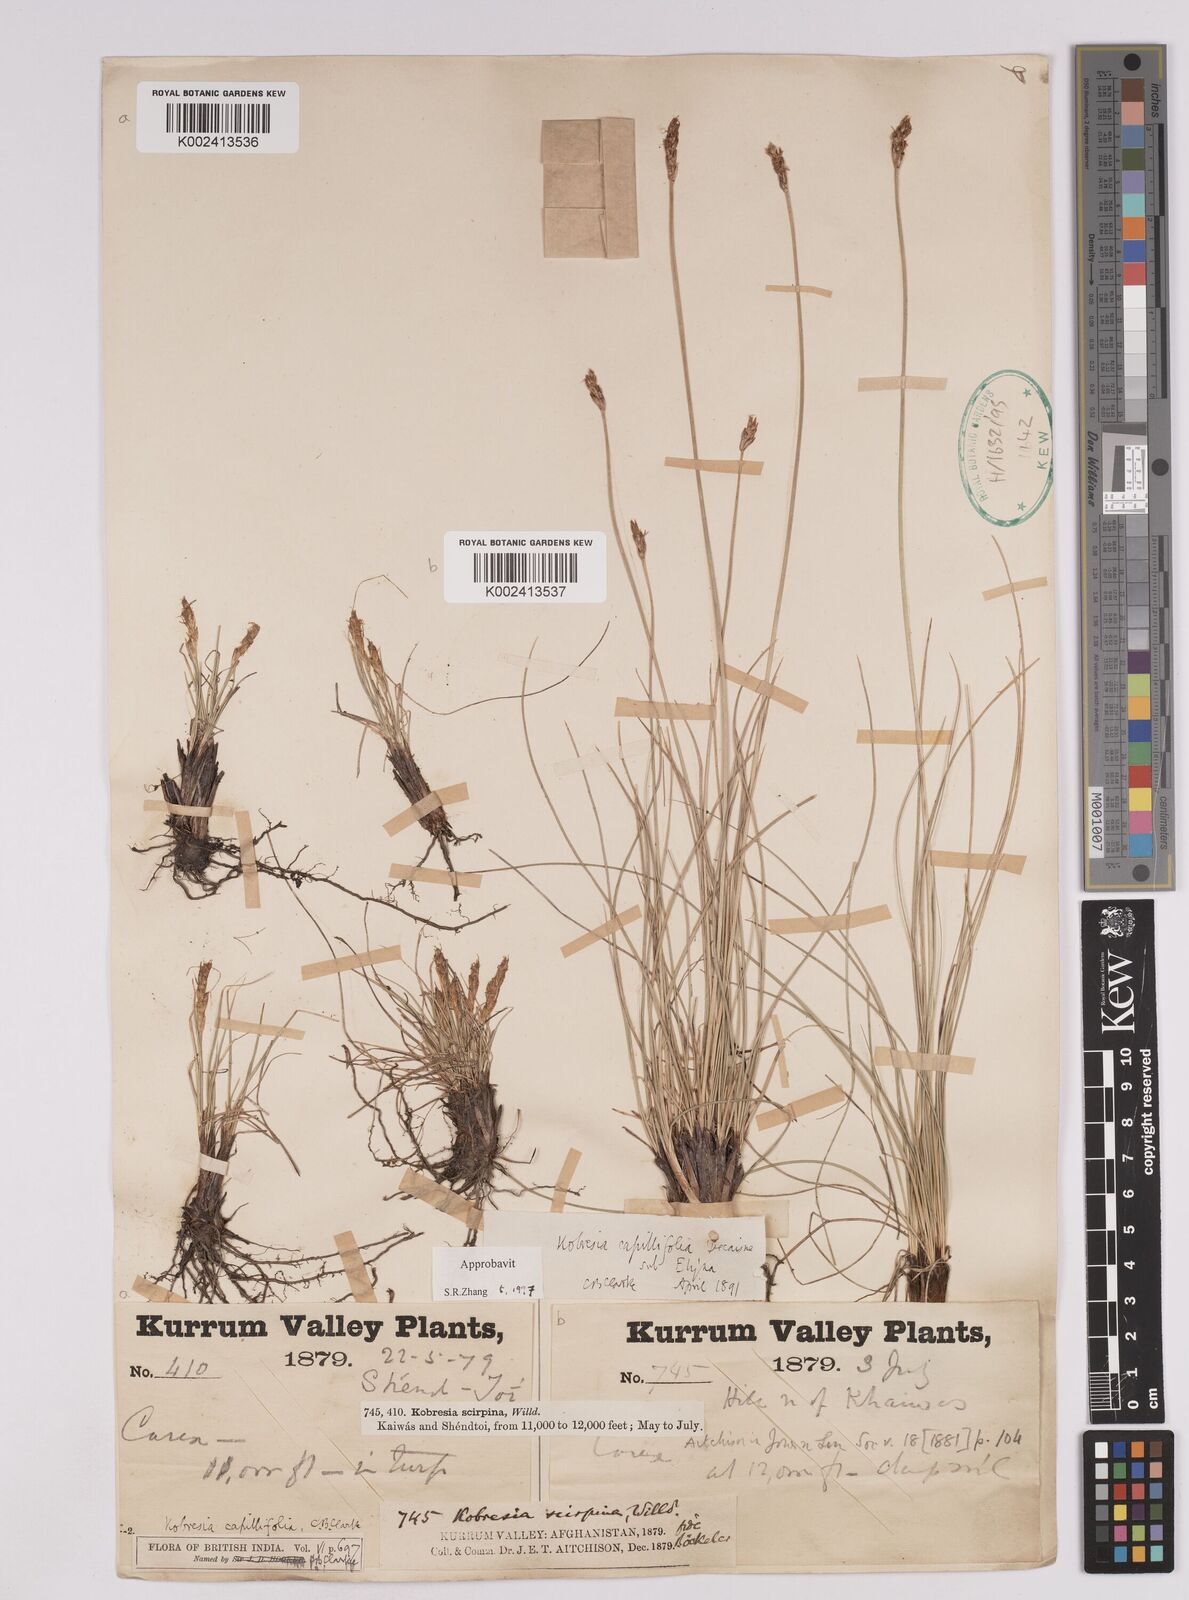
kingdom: Plantae
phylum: Tracheophyta
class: Liliopsida
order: Poales
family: Cyperaceae
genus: Carex
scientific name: Carex capillifolia
